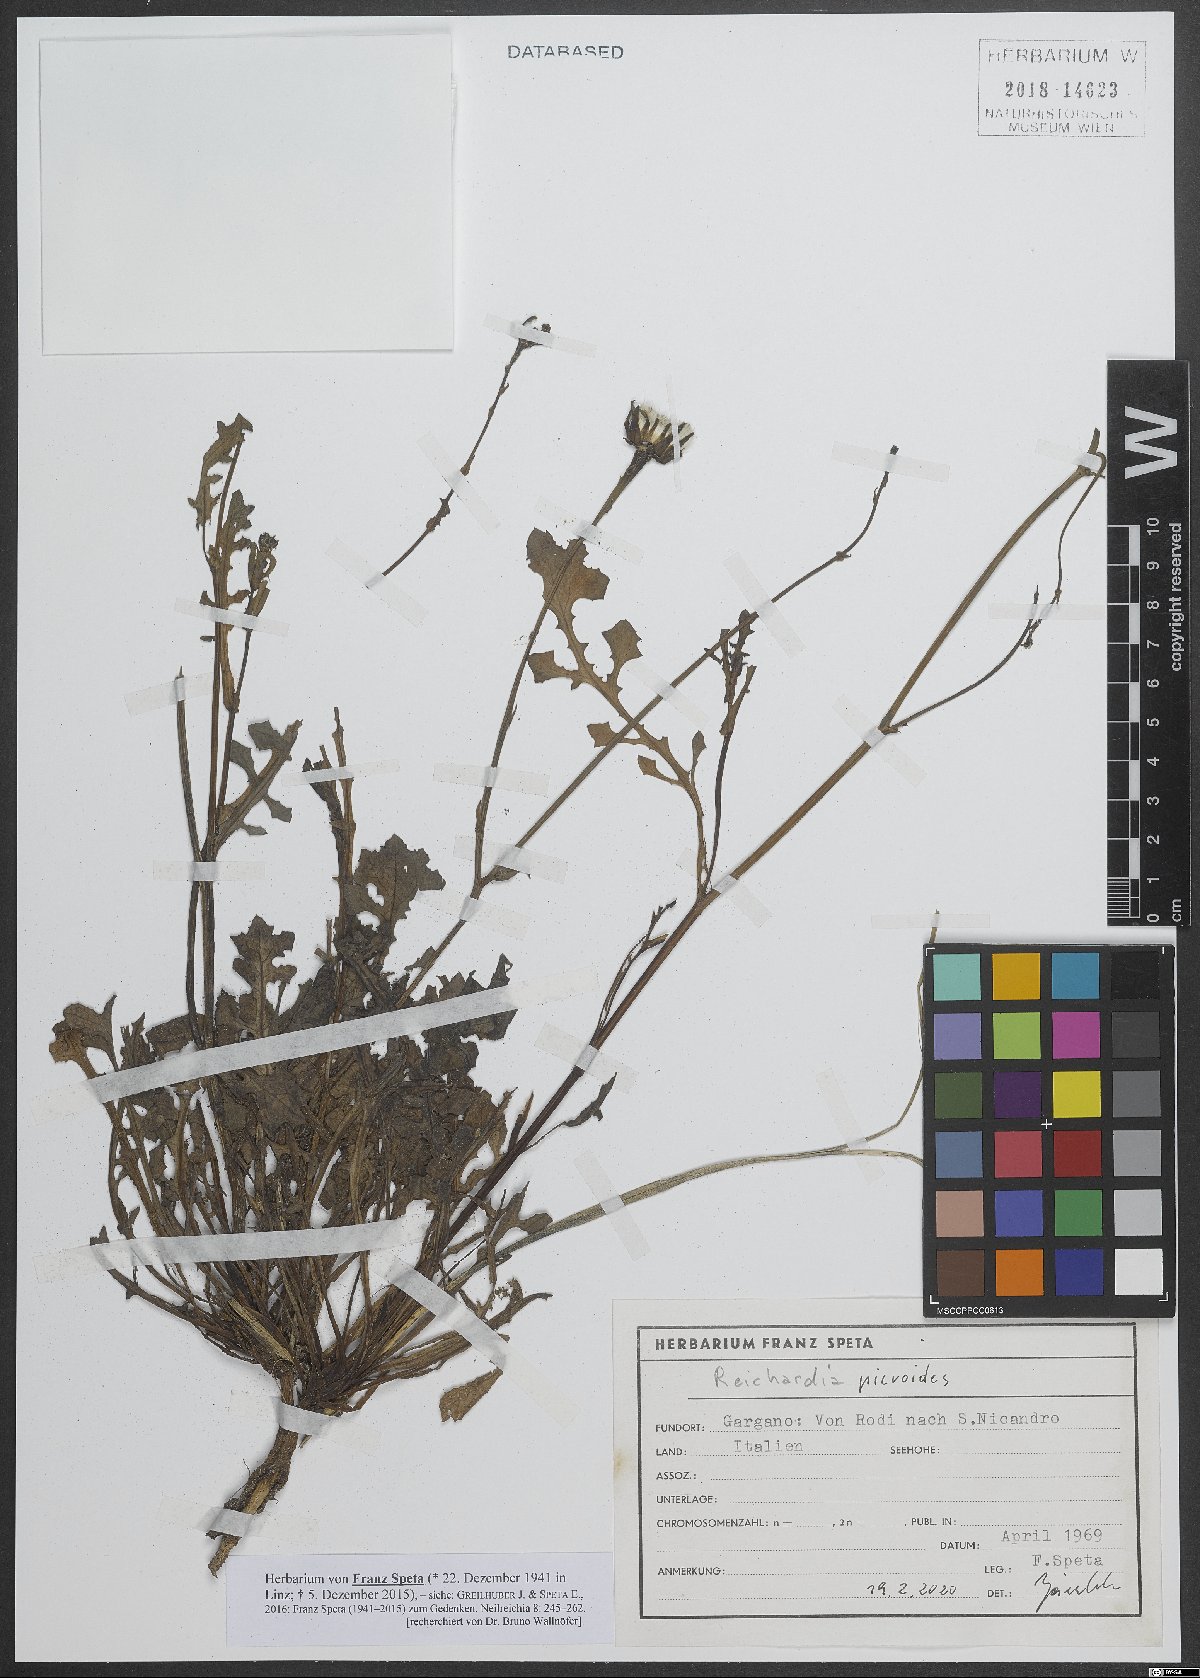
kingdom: Plantae
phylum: Tracheophyta
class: Magnoliopsida
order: Asterales
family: Asteraceae
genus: Reichardia
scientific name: Reichardia picroides
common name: Common brighteyes
